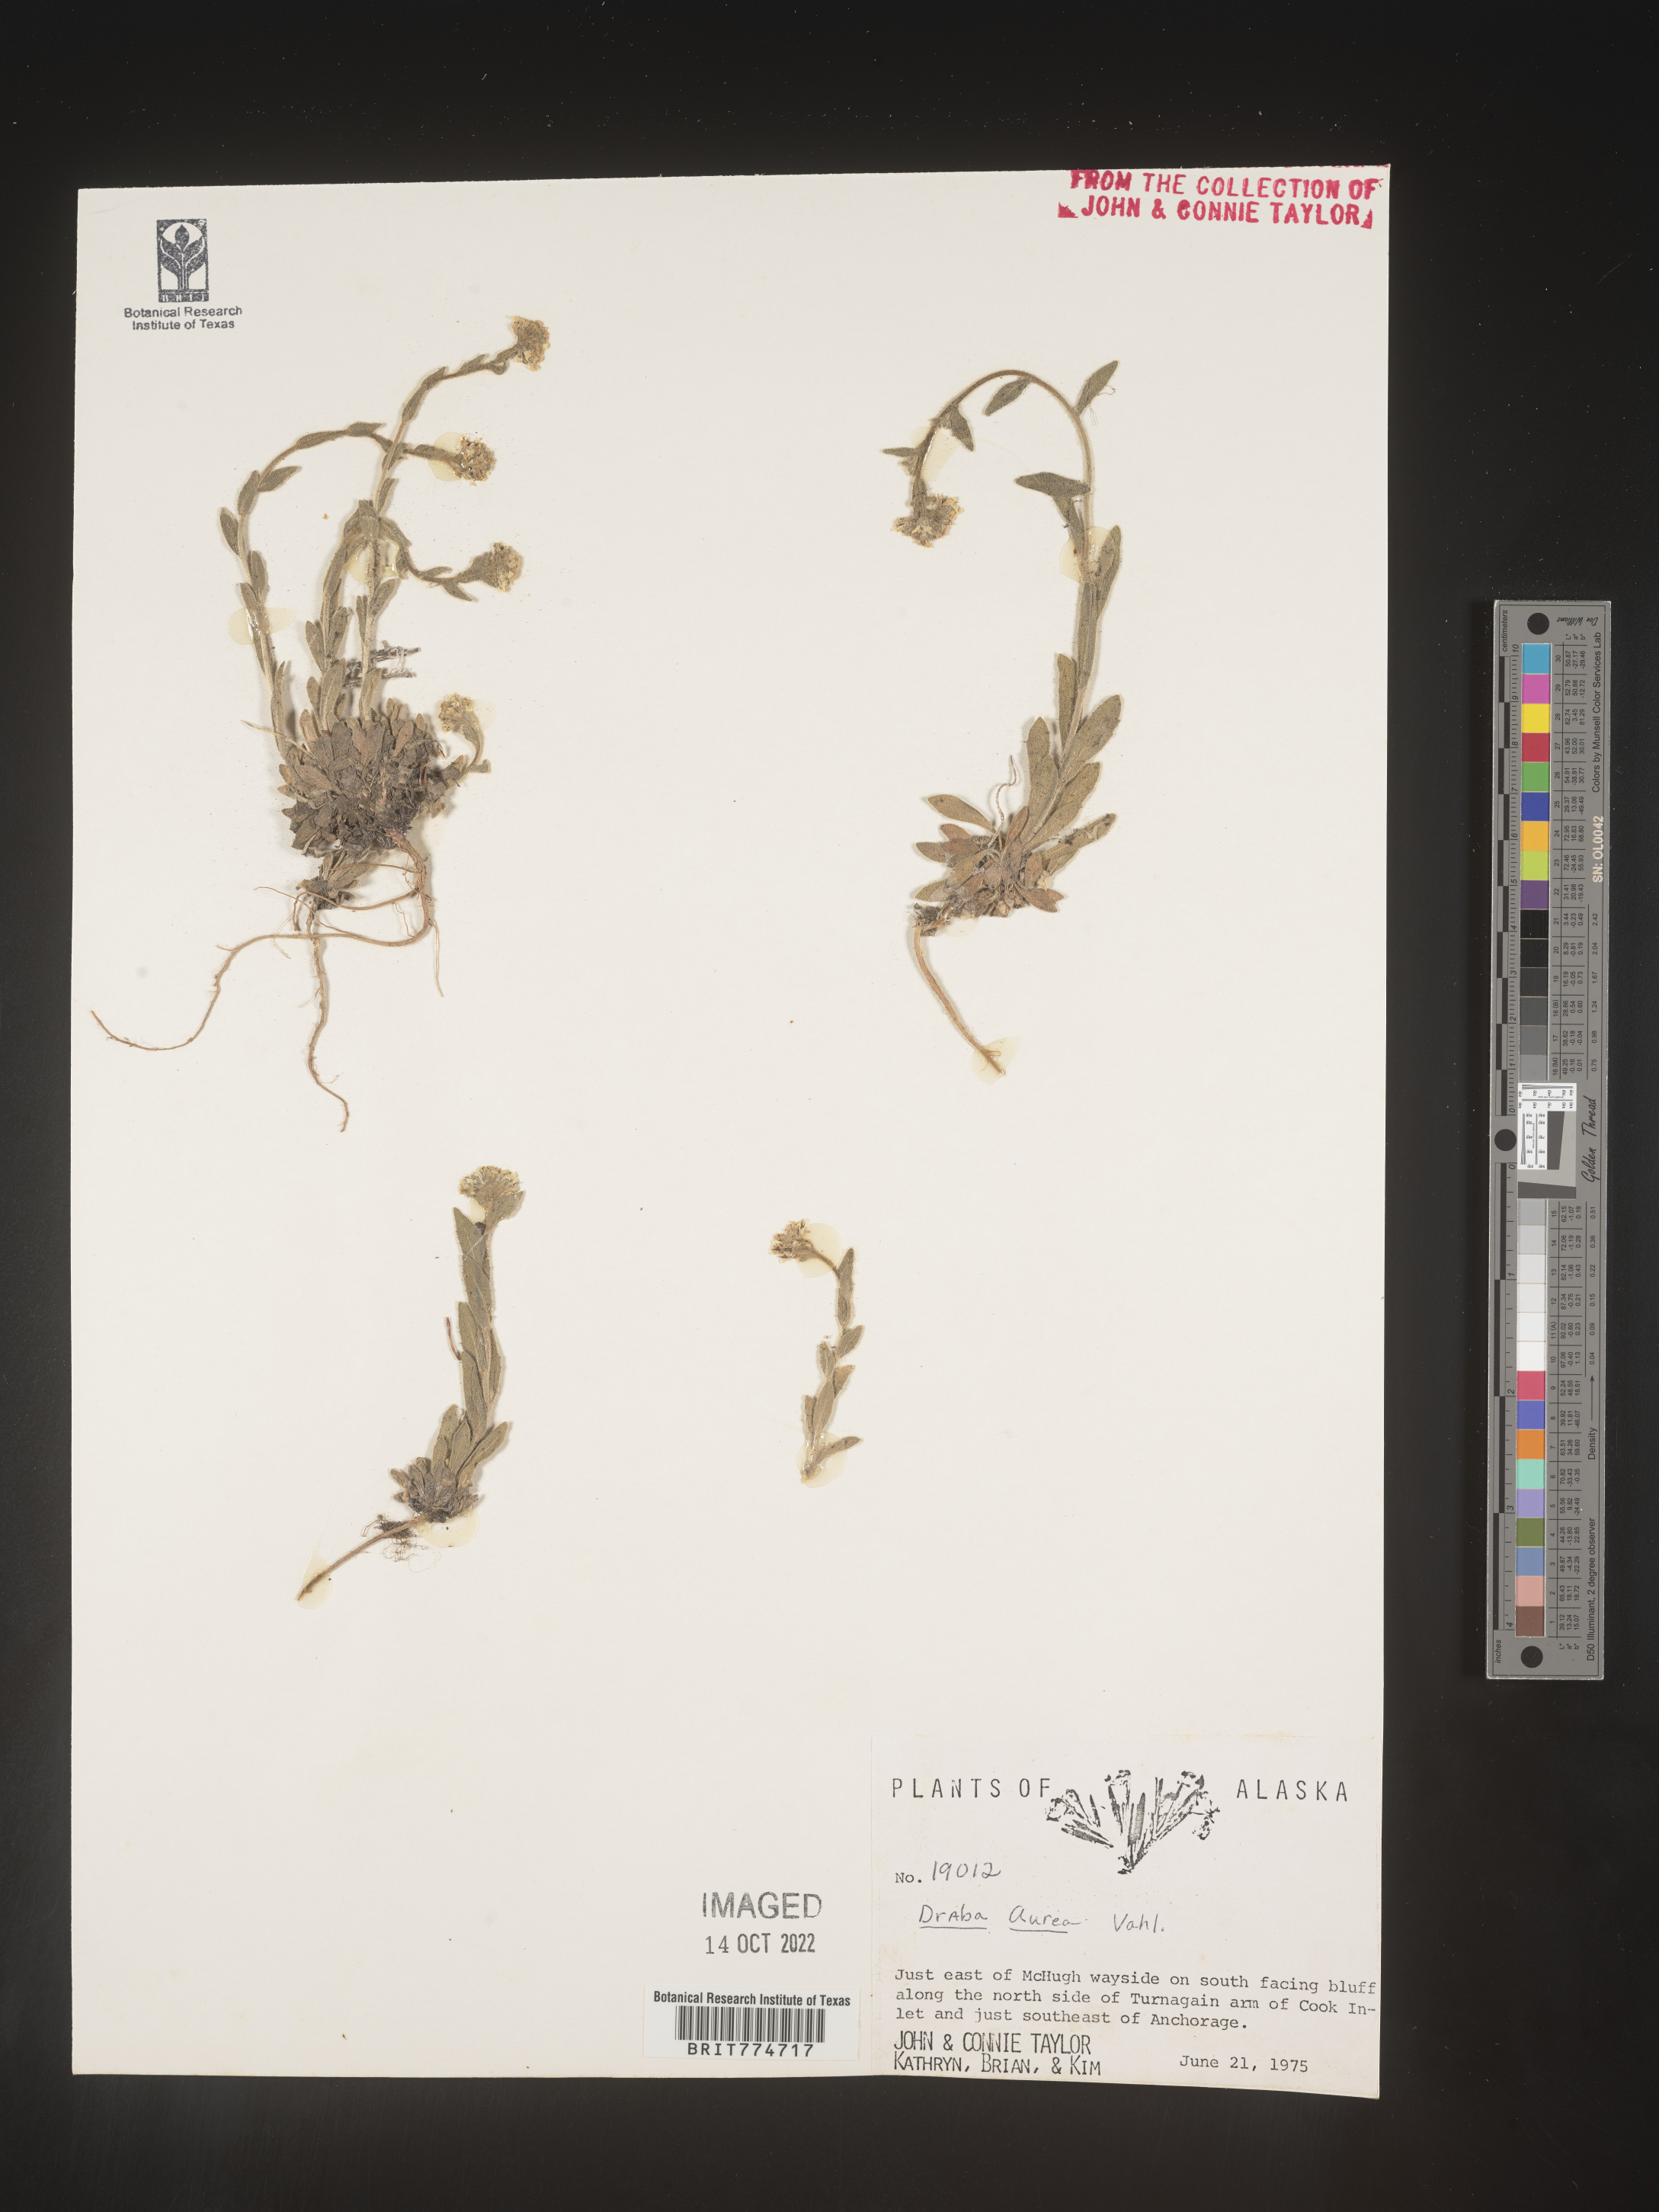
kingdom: Plantae
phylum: Tracheophyta
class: Magnoliopsida
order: Brassicales
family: Brassicaceae
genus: Draba
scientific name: Draba
